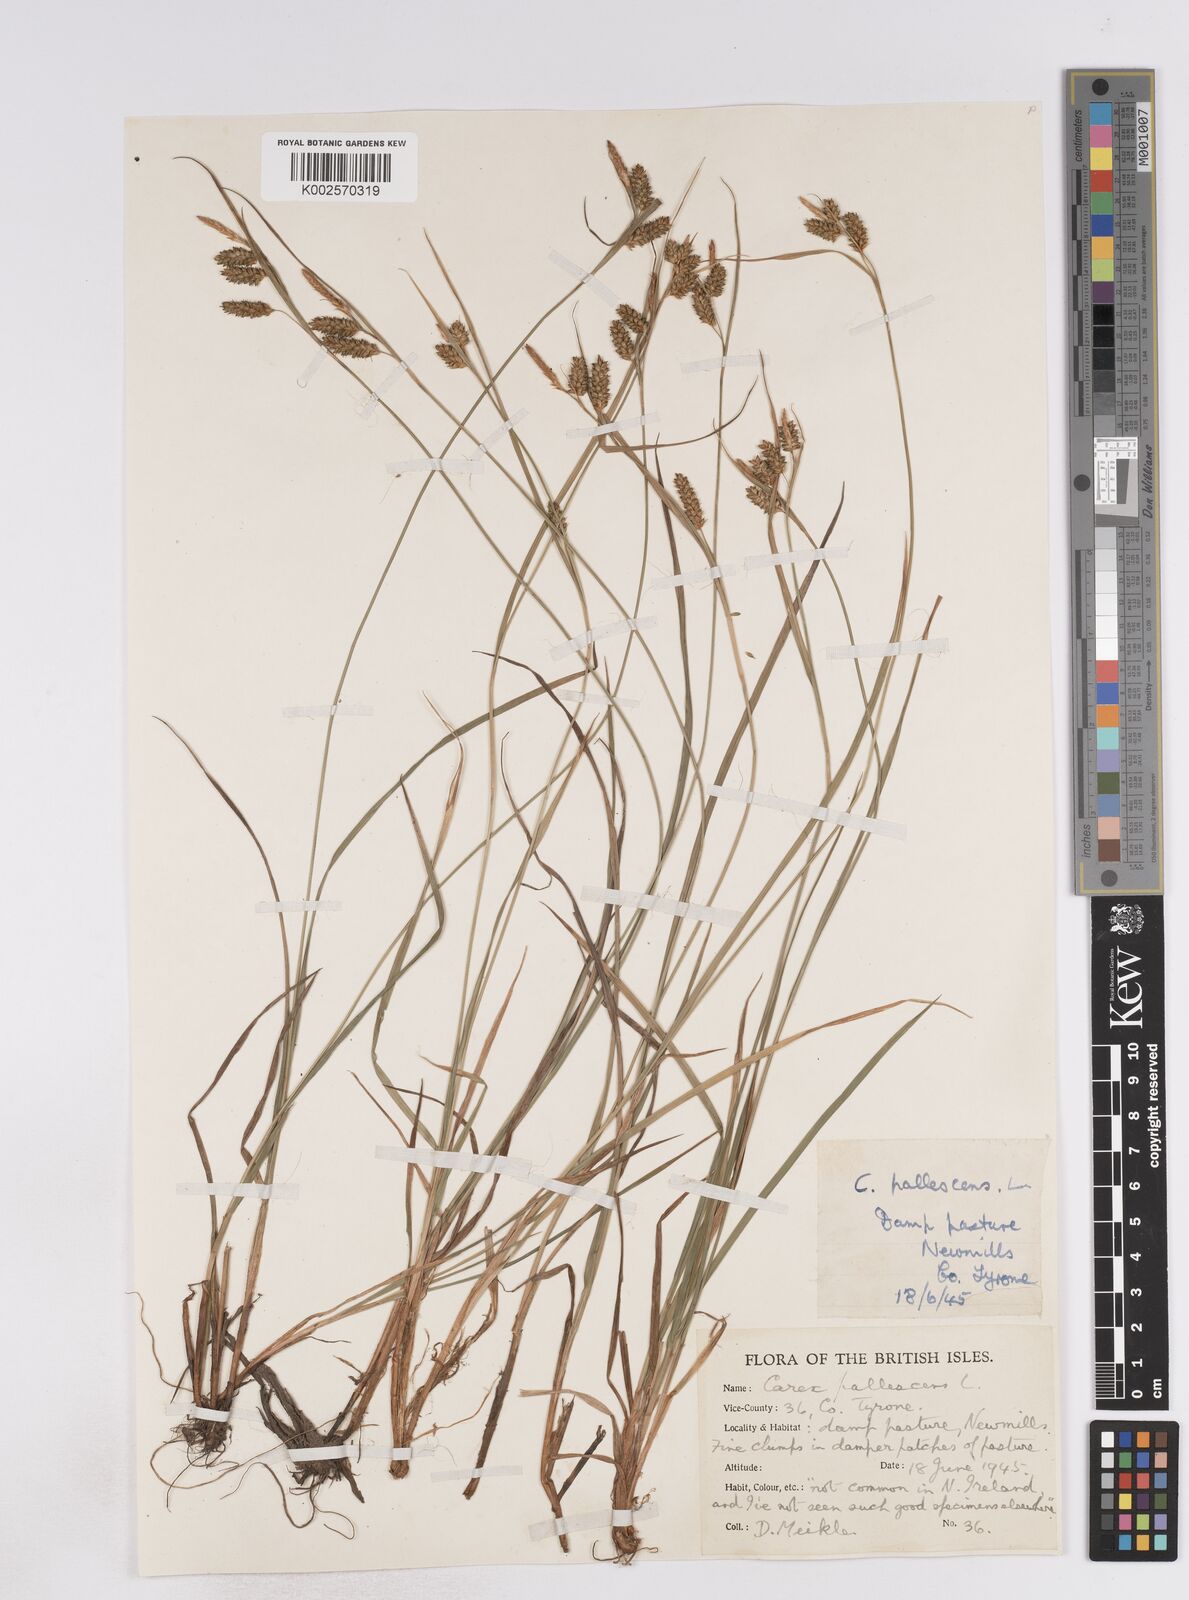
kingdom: Plantae
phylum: Tracheophyta
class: Liliopsida
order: Poales
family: Cyperaceae
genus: Carex
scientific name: Carex pallescens
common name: Pale sedge
